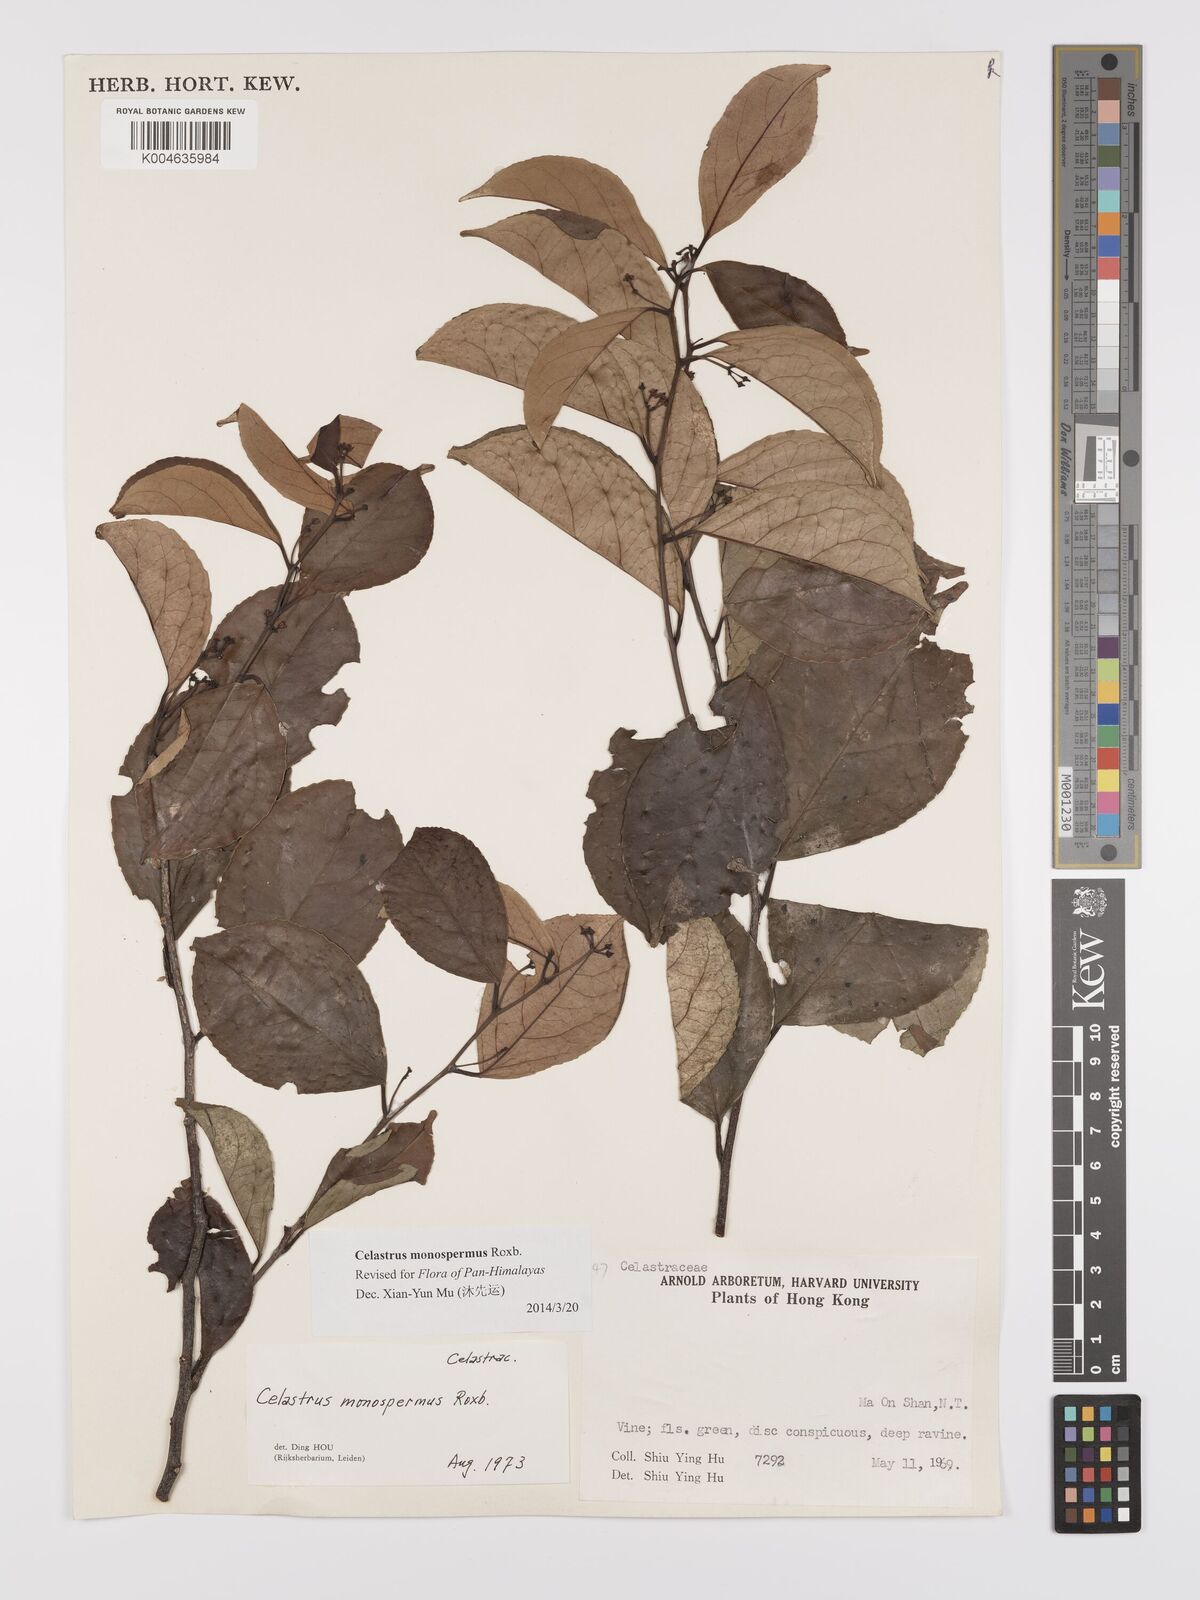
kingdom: Plantae
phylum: Tracheophyta
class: Magnoliopsida
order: Celastrales
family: Celastraceae
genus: Celastrus
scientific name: Celastrus monospermus
